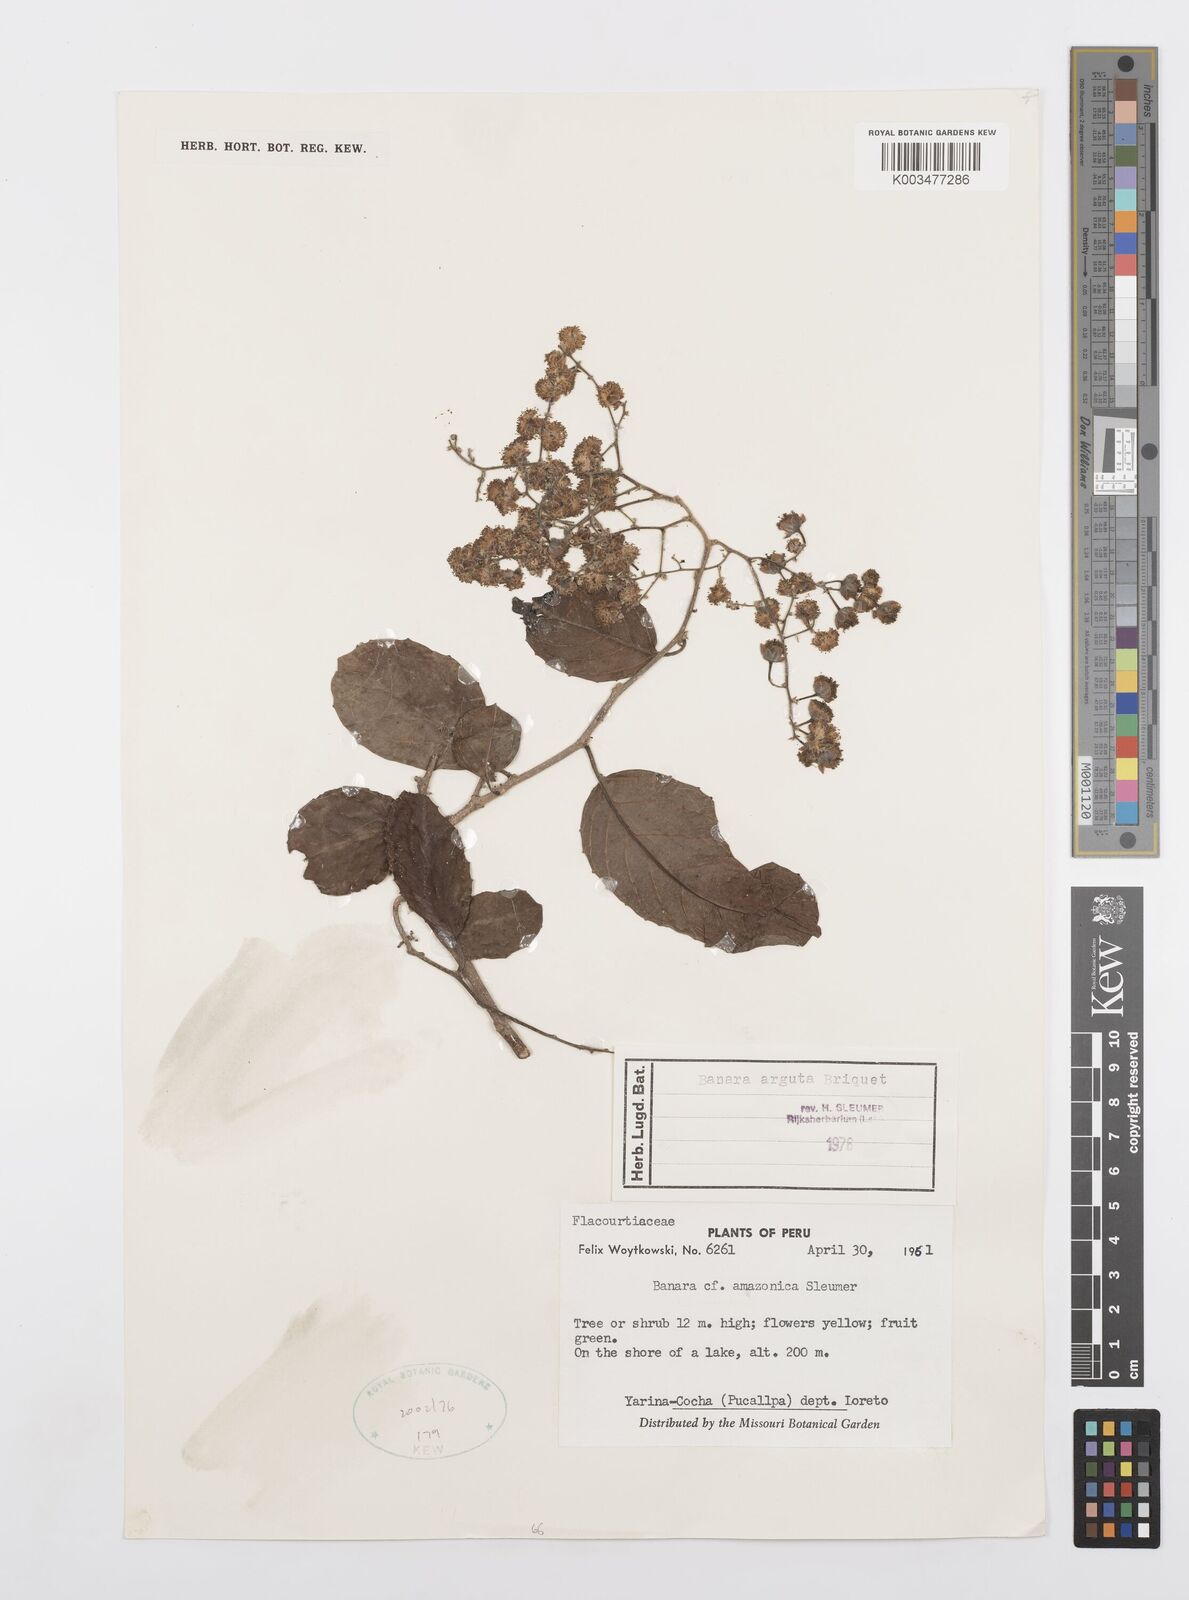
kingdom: Plantae
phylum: Tracheophyta
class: Magnoliopsida
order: Malpighiales
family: Salicaceae
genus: Banara
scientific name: Banara arguta
